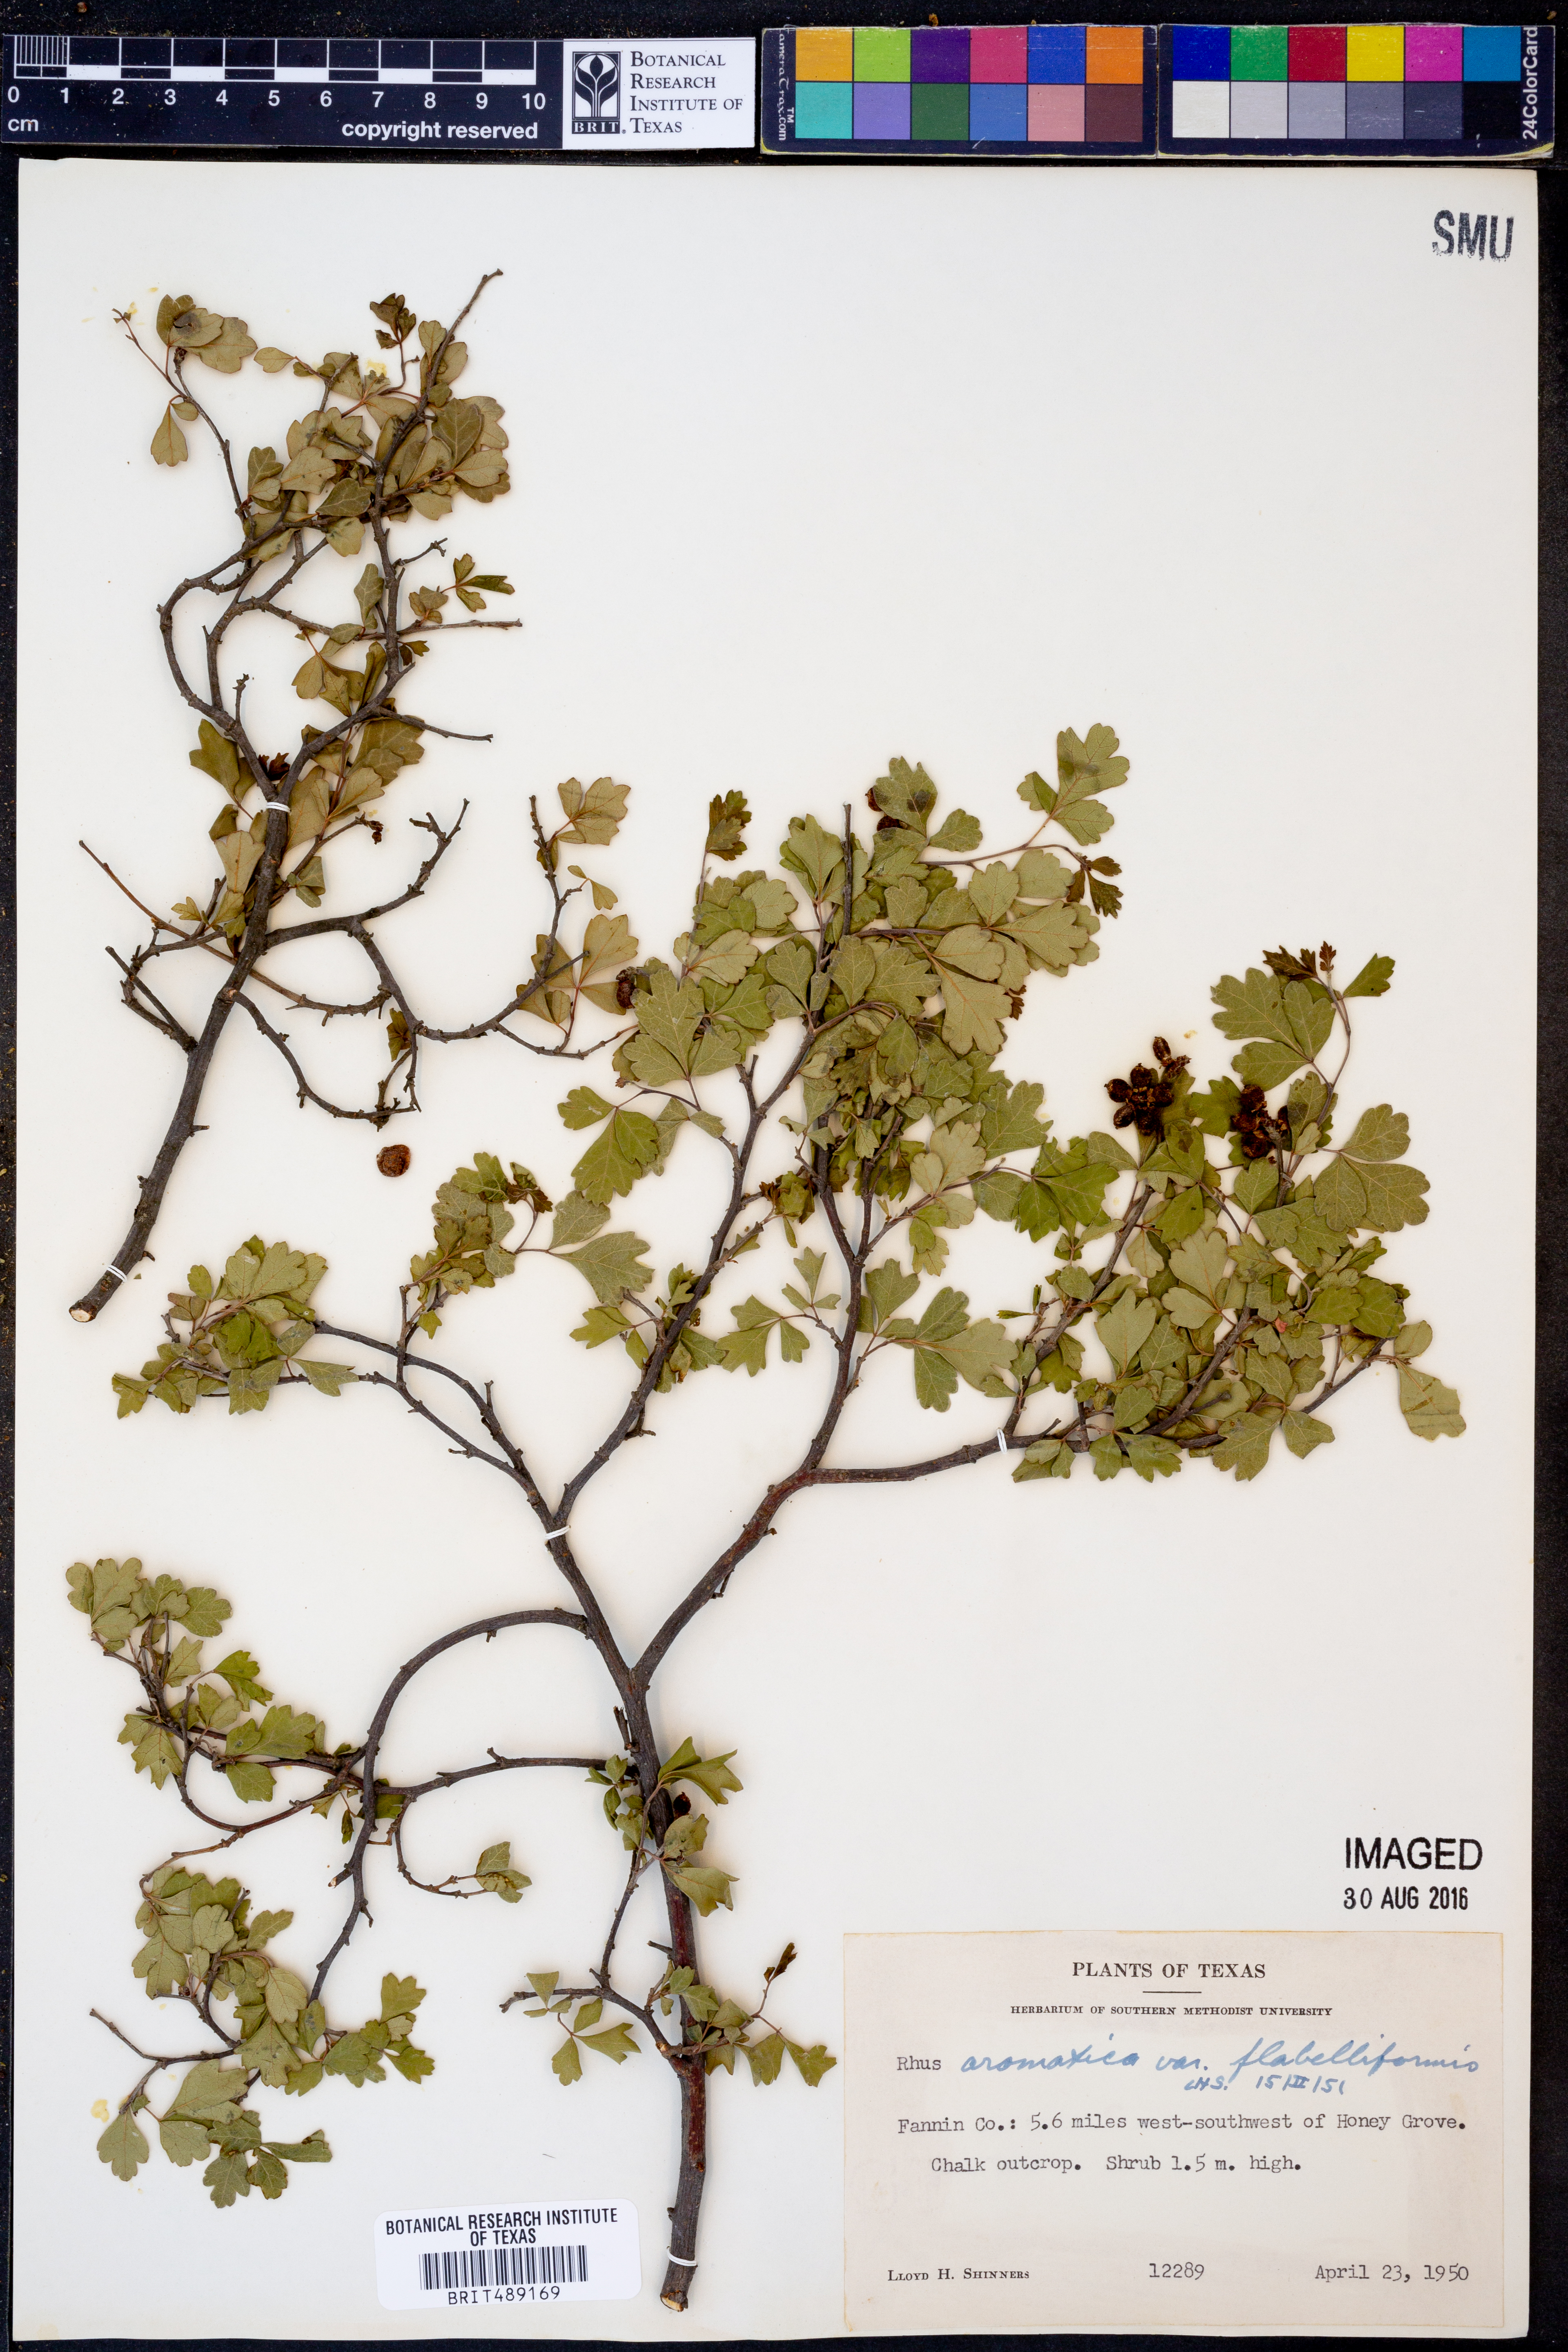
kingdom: Plantae
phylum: Tracheophyta
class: Magnoliopsida
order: Sapindales
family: Anacardiaceae
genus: Rhus
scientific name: Rhus trilobata
